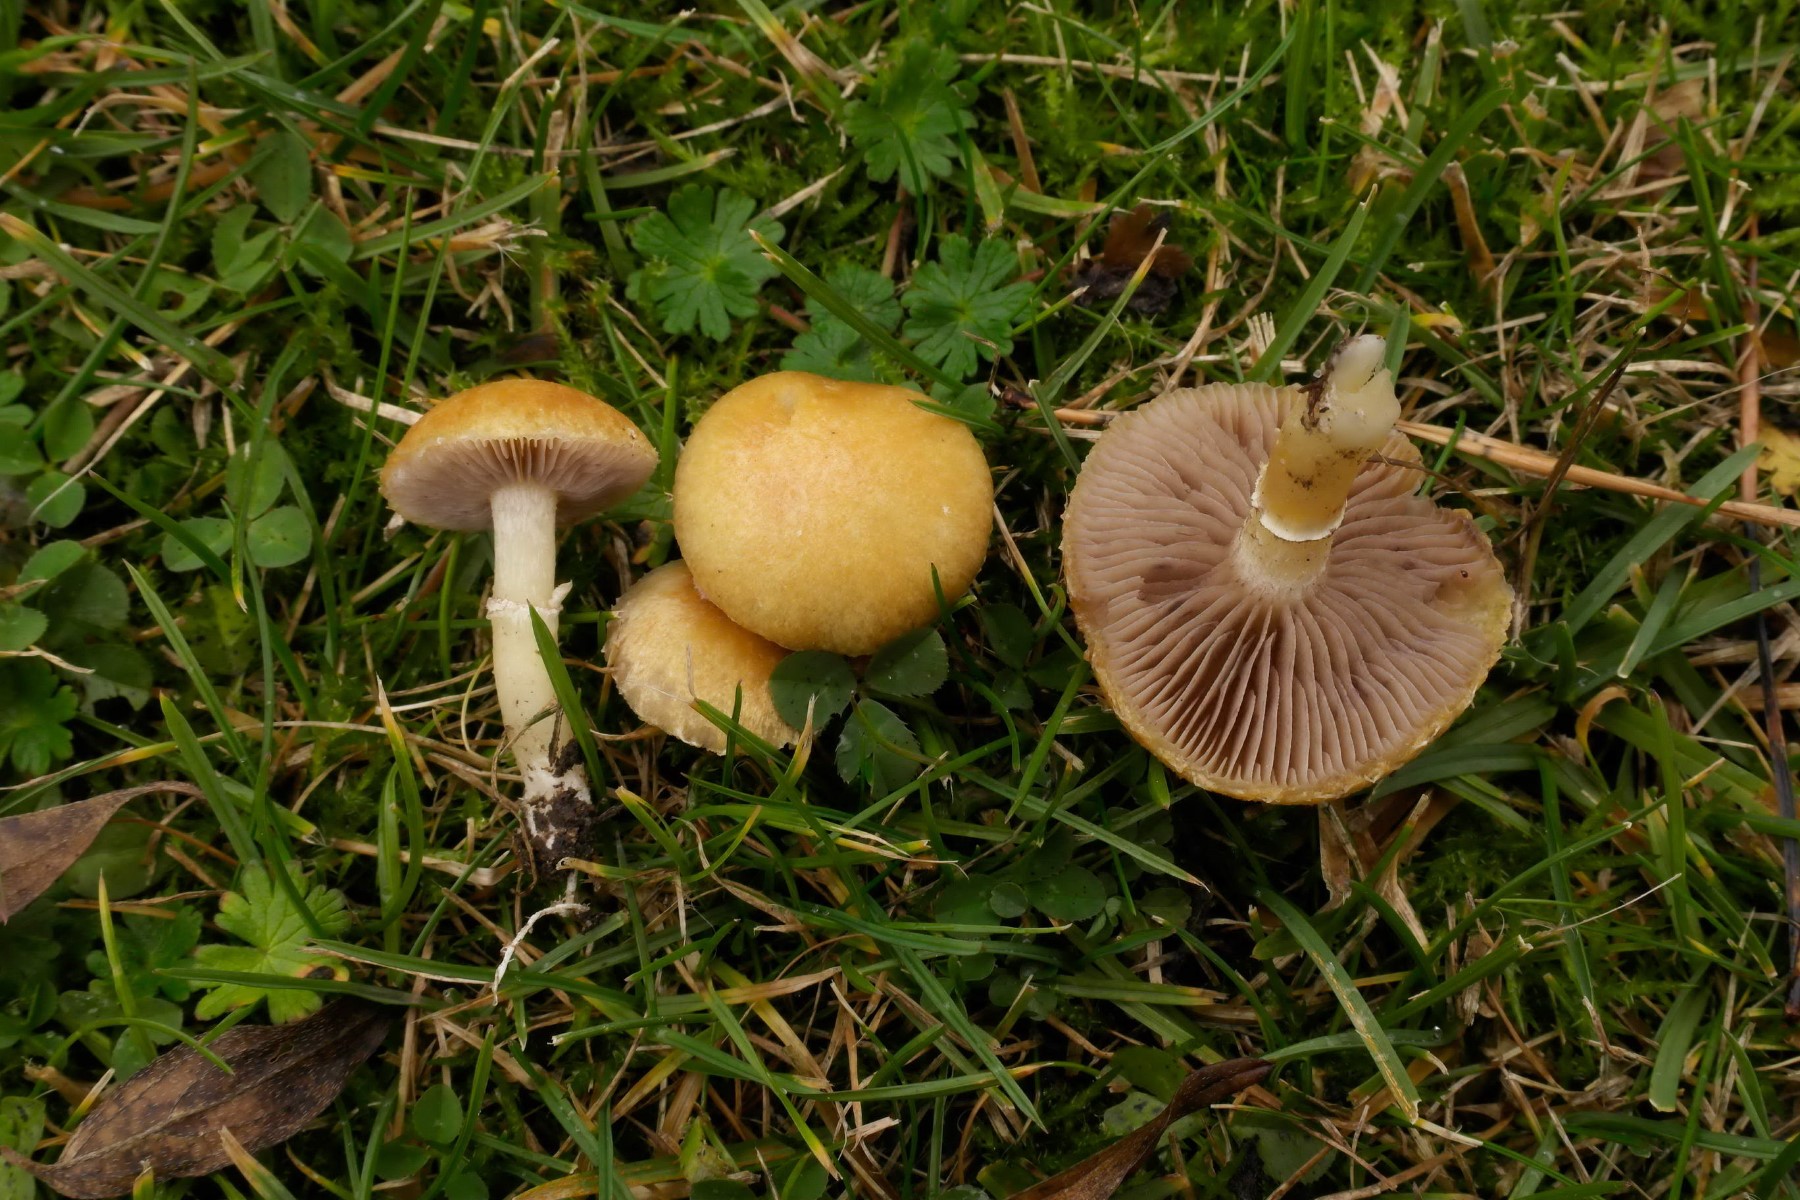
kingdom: Fungi
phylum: Basidiomycota
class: Agaricomycetes
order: Agaricales
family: Hymenogastraceae
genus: Psilocybe
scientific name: Psilocybe coronilla
